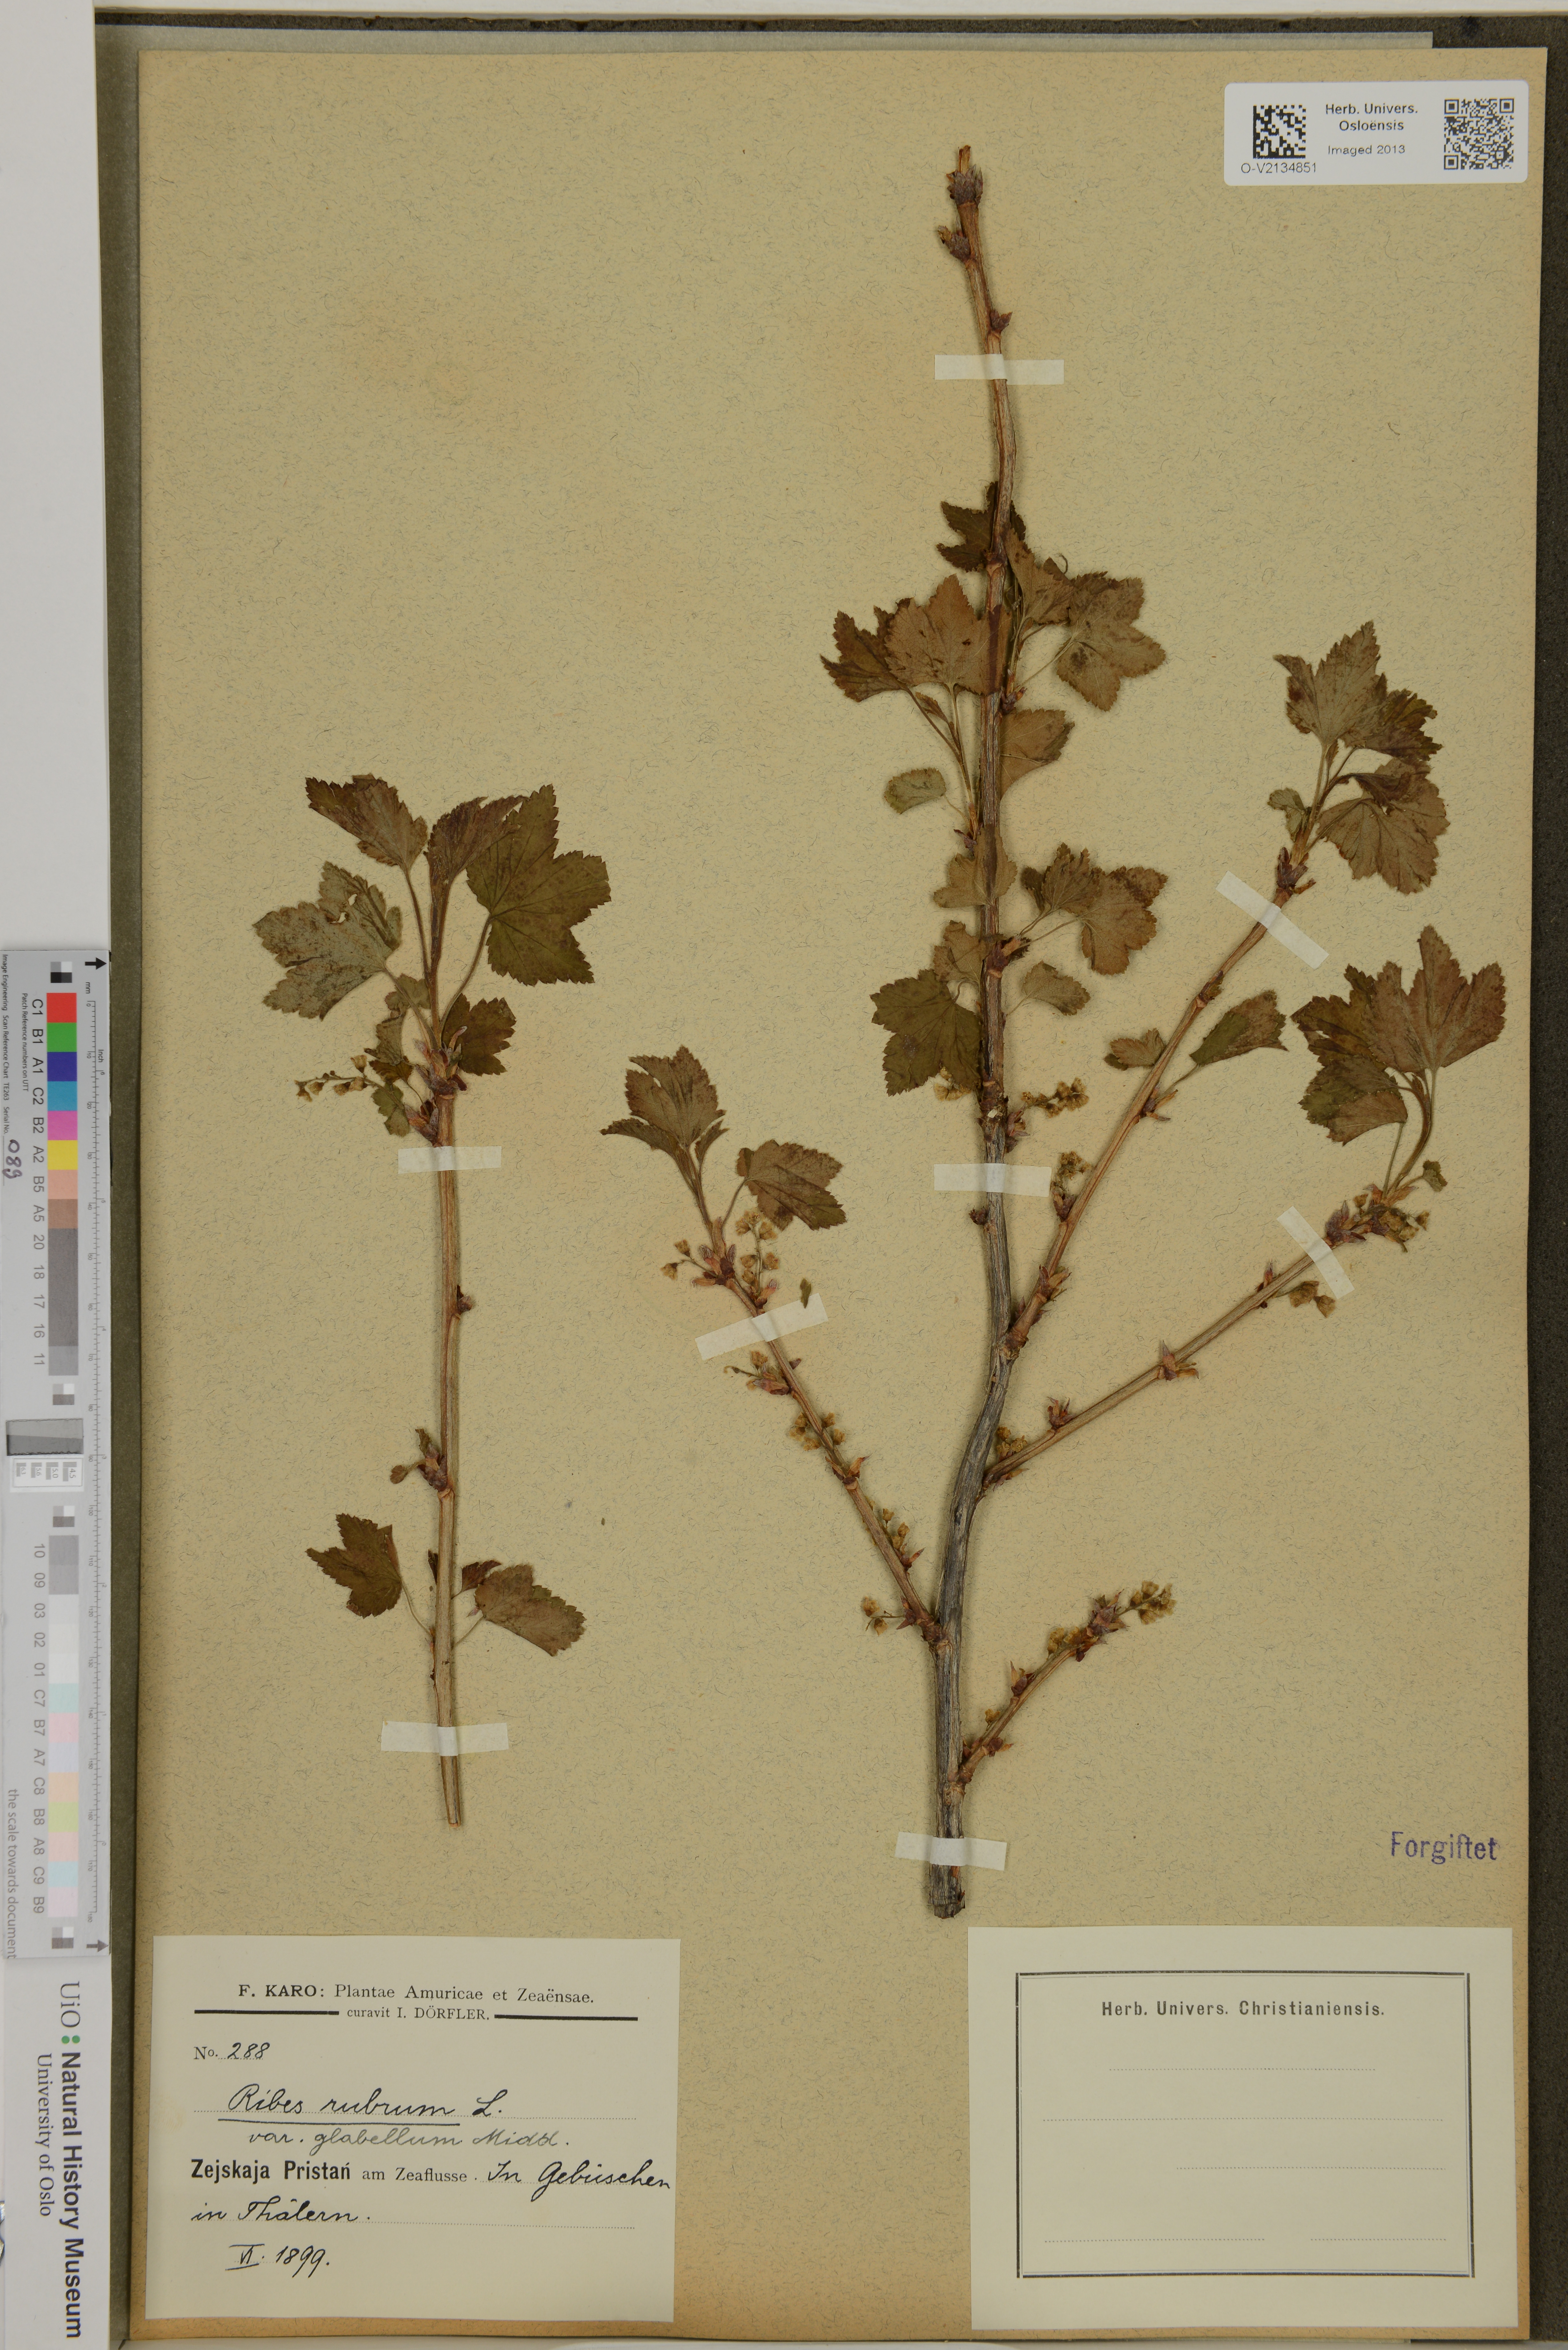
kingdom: Plantae
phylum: Tracheophyta
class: Magnoliopsida
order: Saxifragales
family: Grossulariaceae
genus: Ribes
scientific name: Ribes rubrum
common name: Red currant
